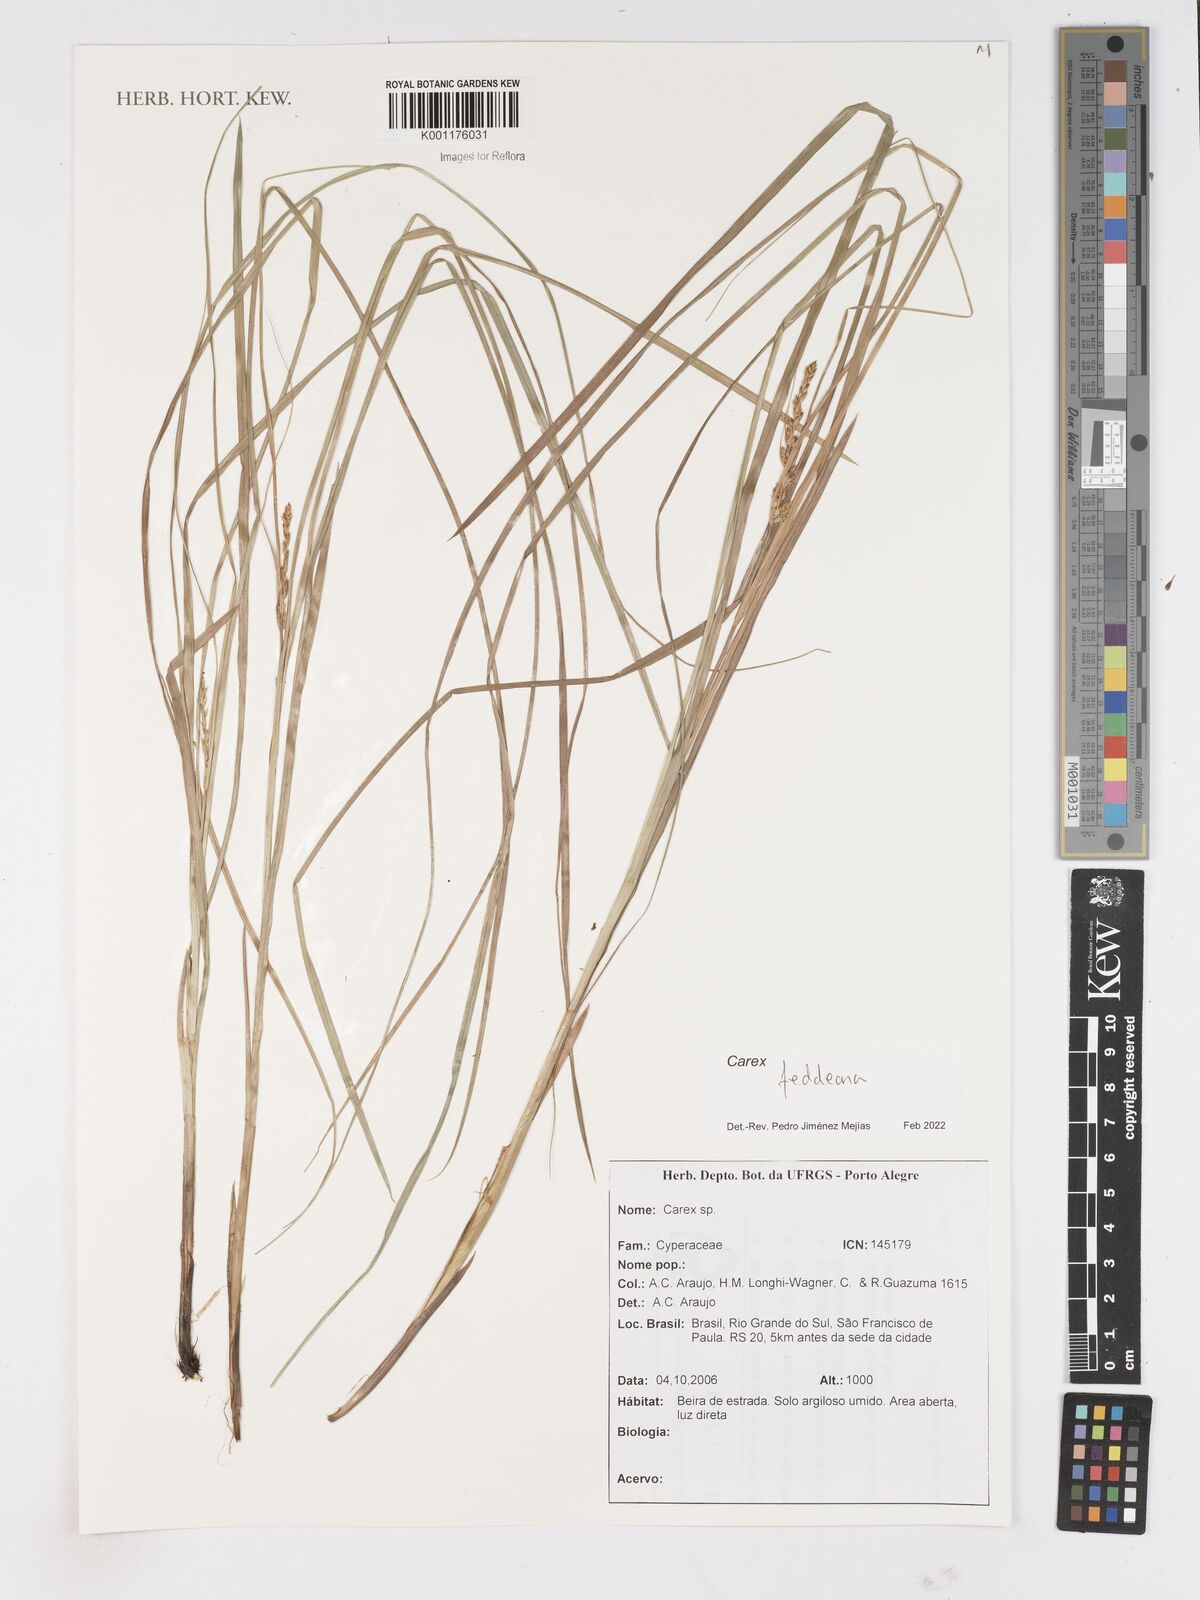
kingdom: Plantae
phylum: Tracheophyta
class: Liliopsida
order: Poales
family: Cyperaceae
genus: Carex
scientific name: Carex feddeana
